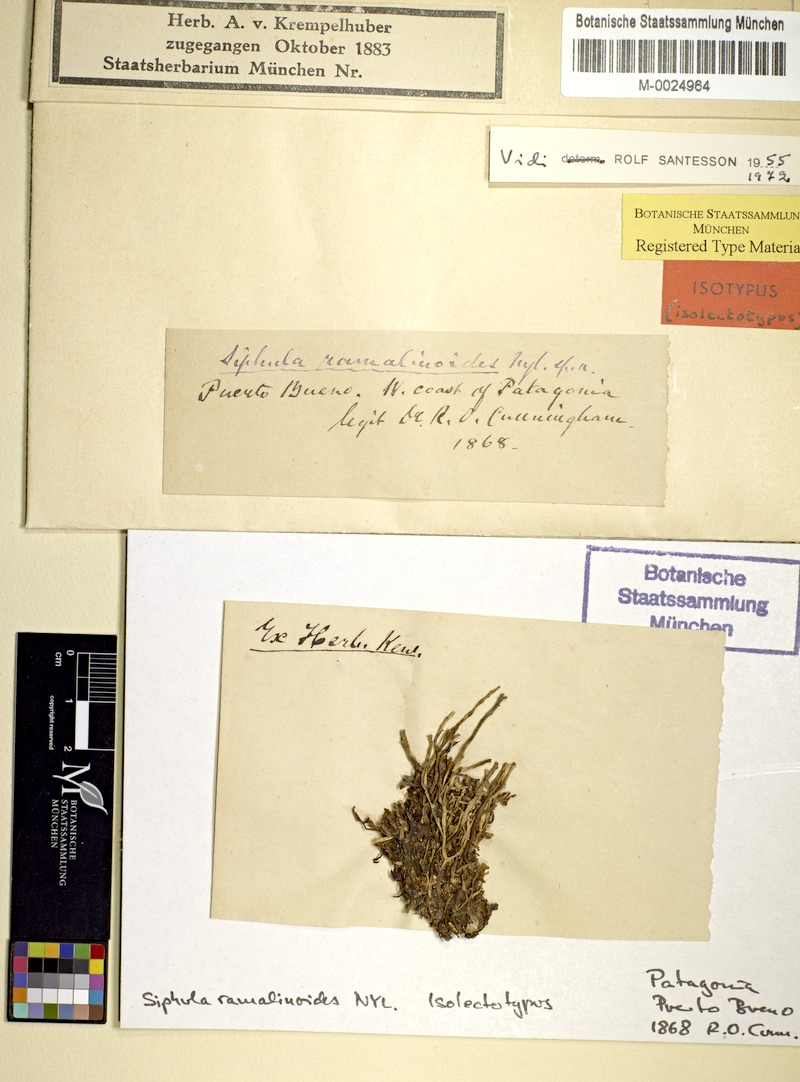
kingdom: Fungi
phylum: Ascomycota
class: Lecanoromycetes
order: Pertusariales
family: Icmadophilaceae
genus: Siphula
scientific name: Siphula ramalinoides
